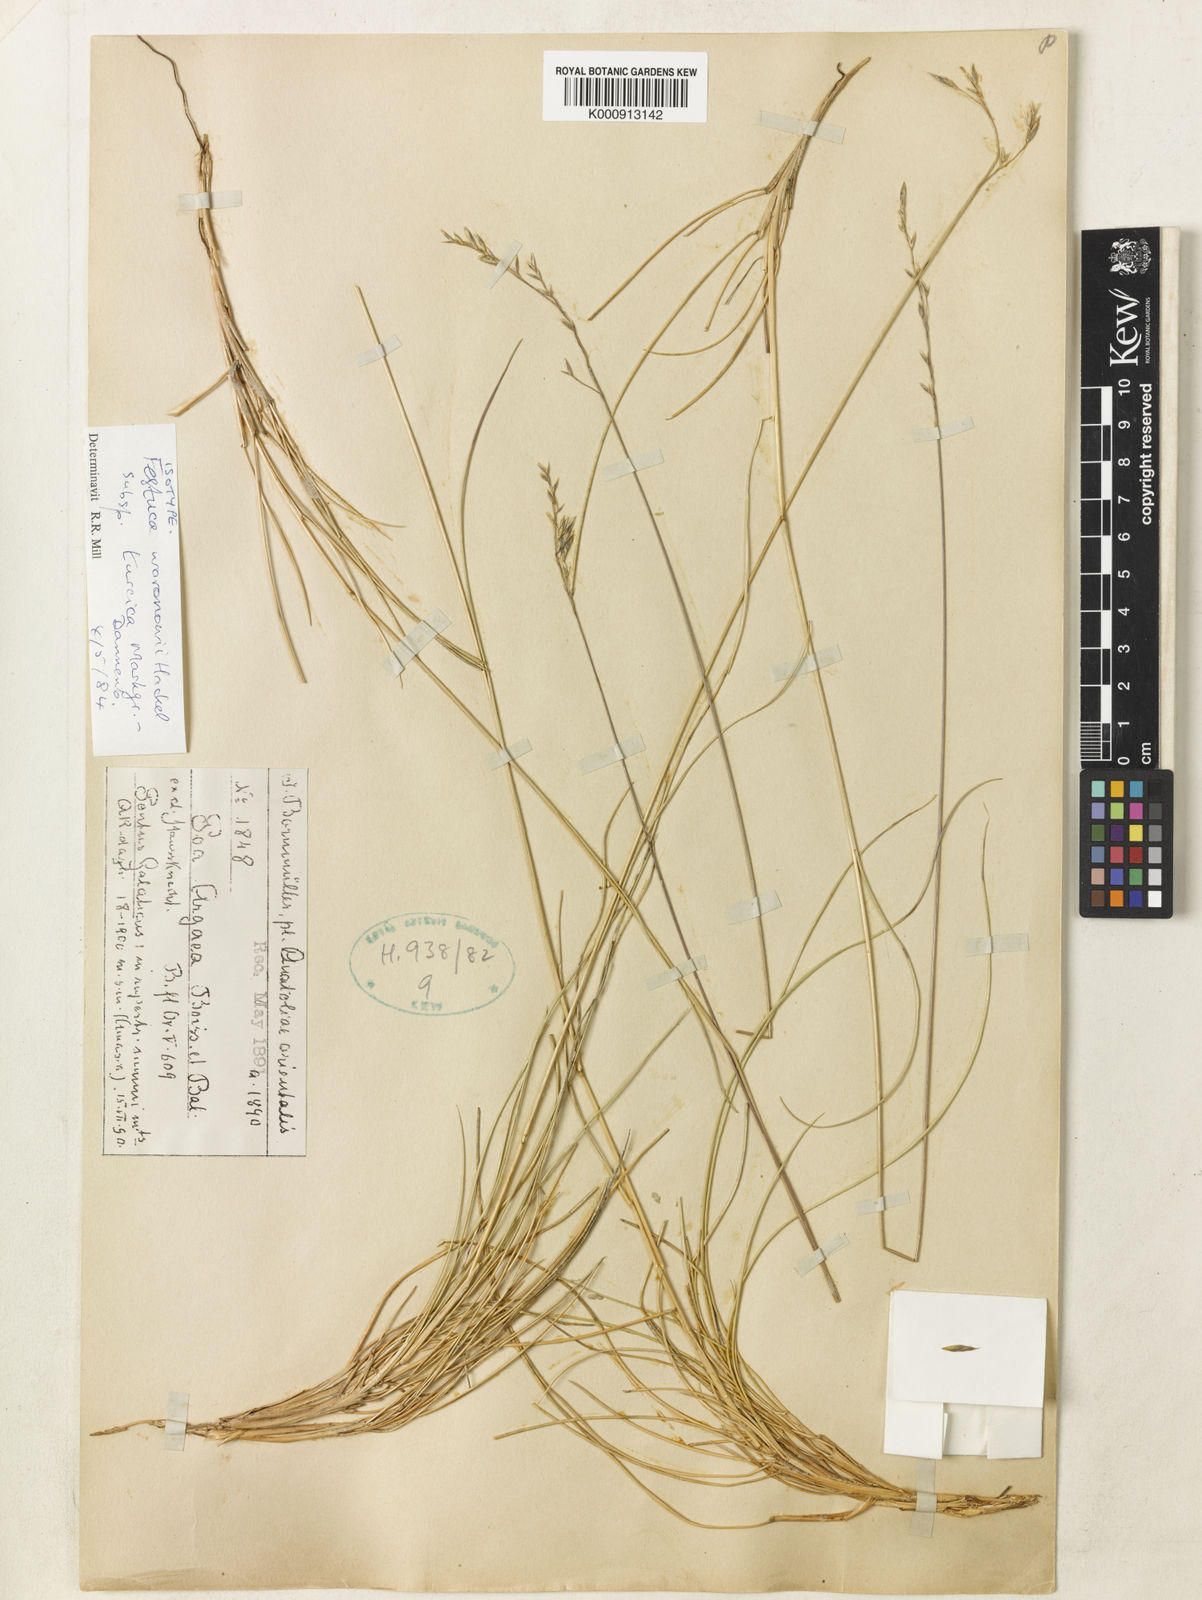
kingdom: Plantae
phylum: Tracheophyta
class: Liliopsida
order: Poales
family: Poaceae
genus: Festuca
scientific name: Festuca varia
